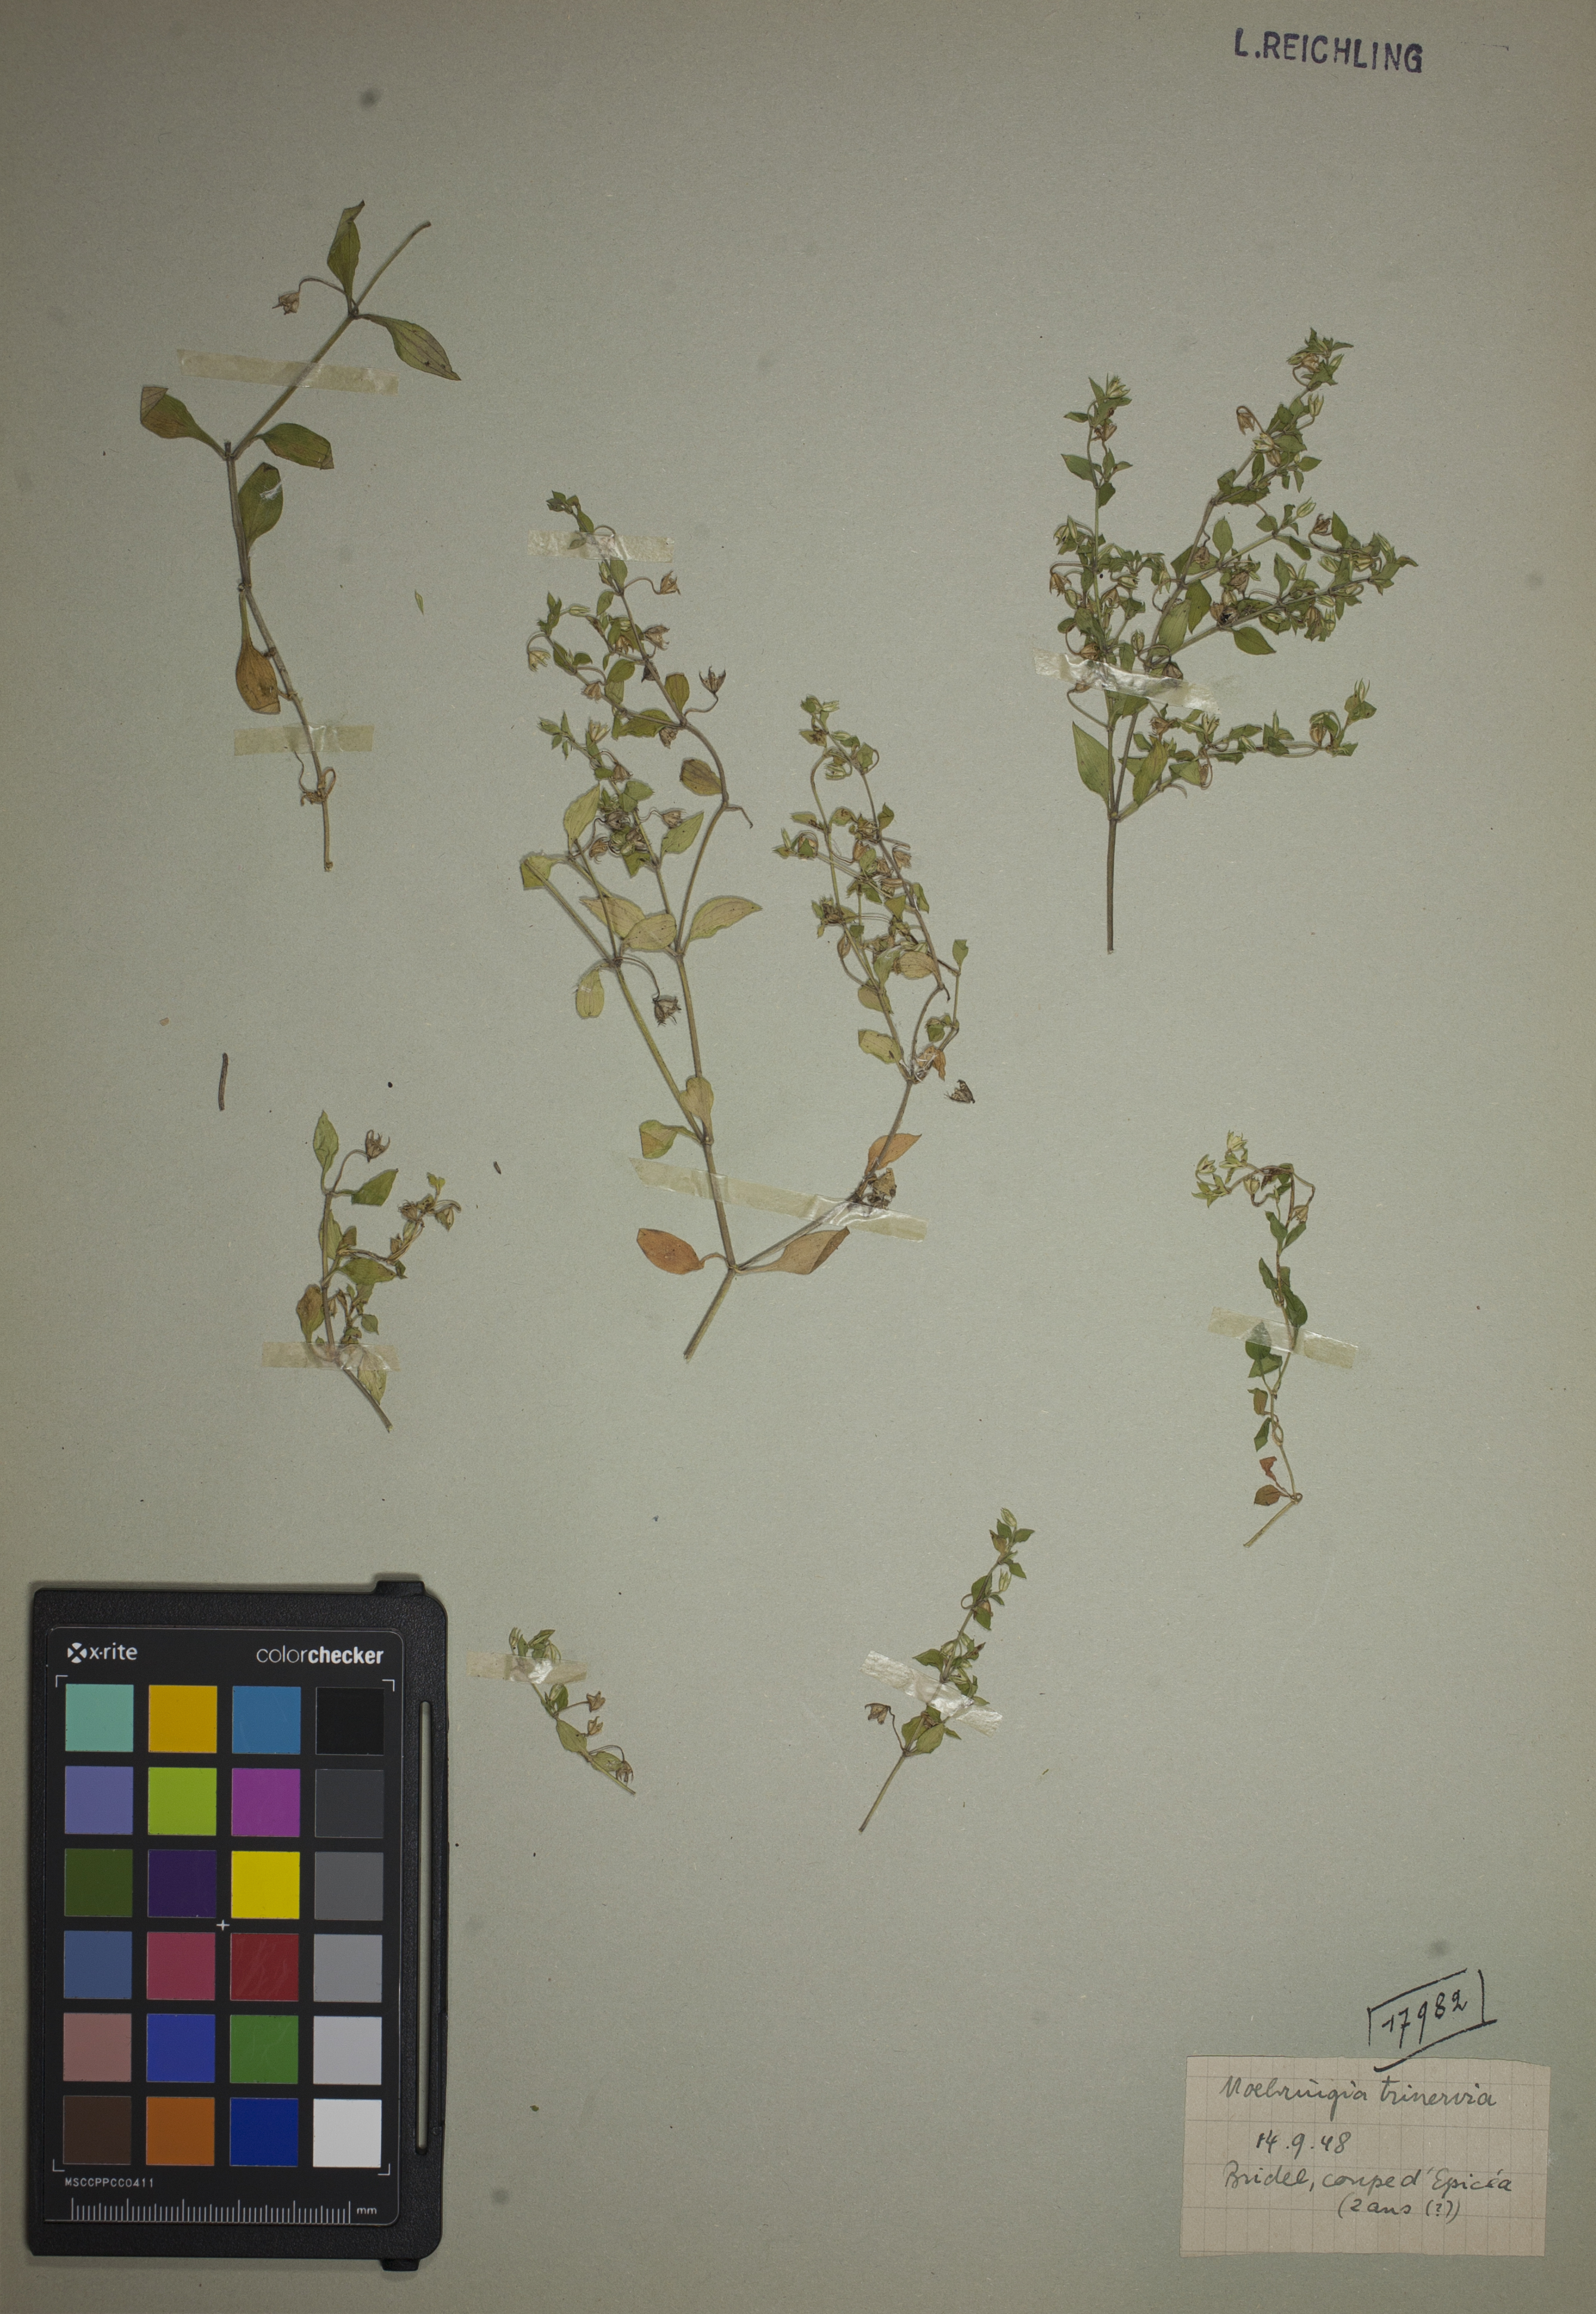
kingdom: Plantae
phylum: Tracheophyta
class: Magnoliopsida
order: Caryophyllales
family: Caryophyllaceae
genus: Moehringia
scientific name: Moehringia trinervia
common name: Three-nerved sandwort
